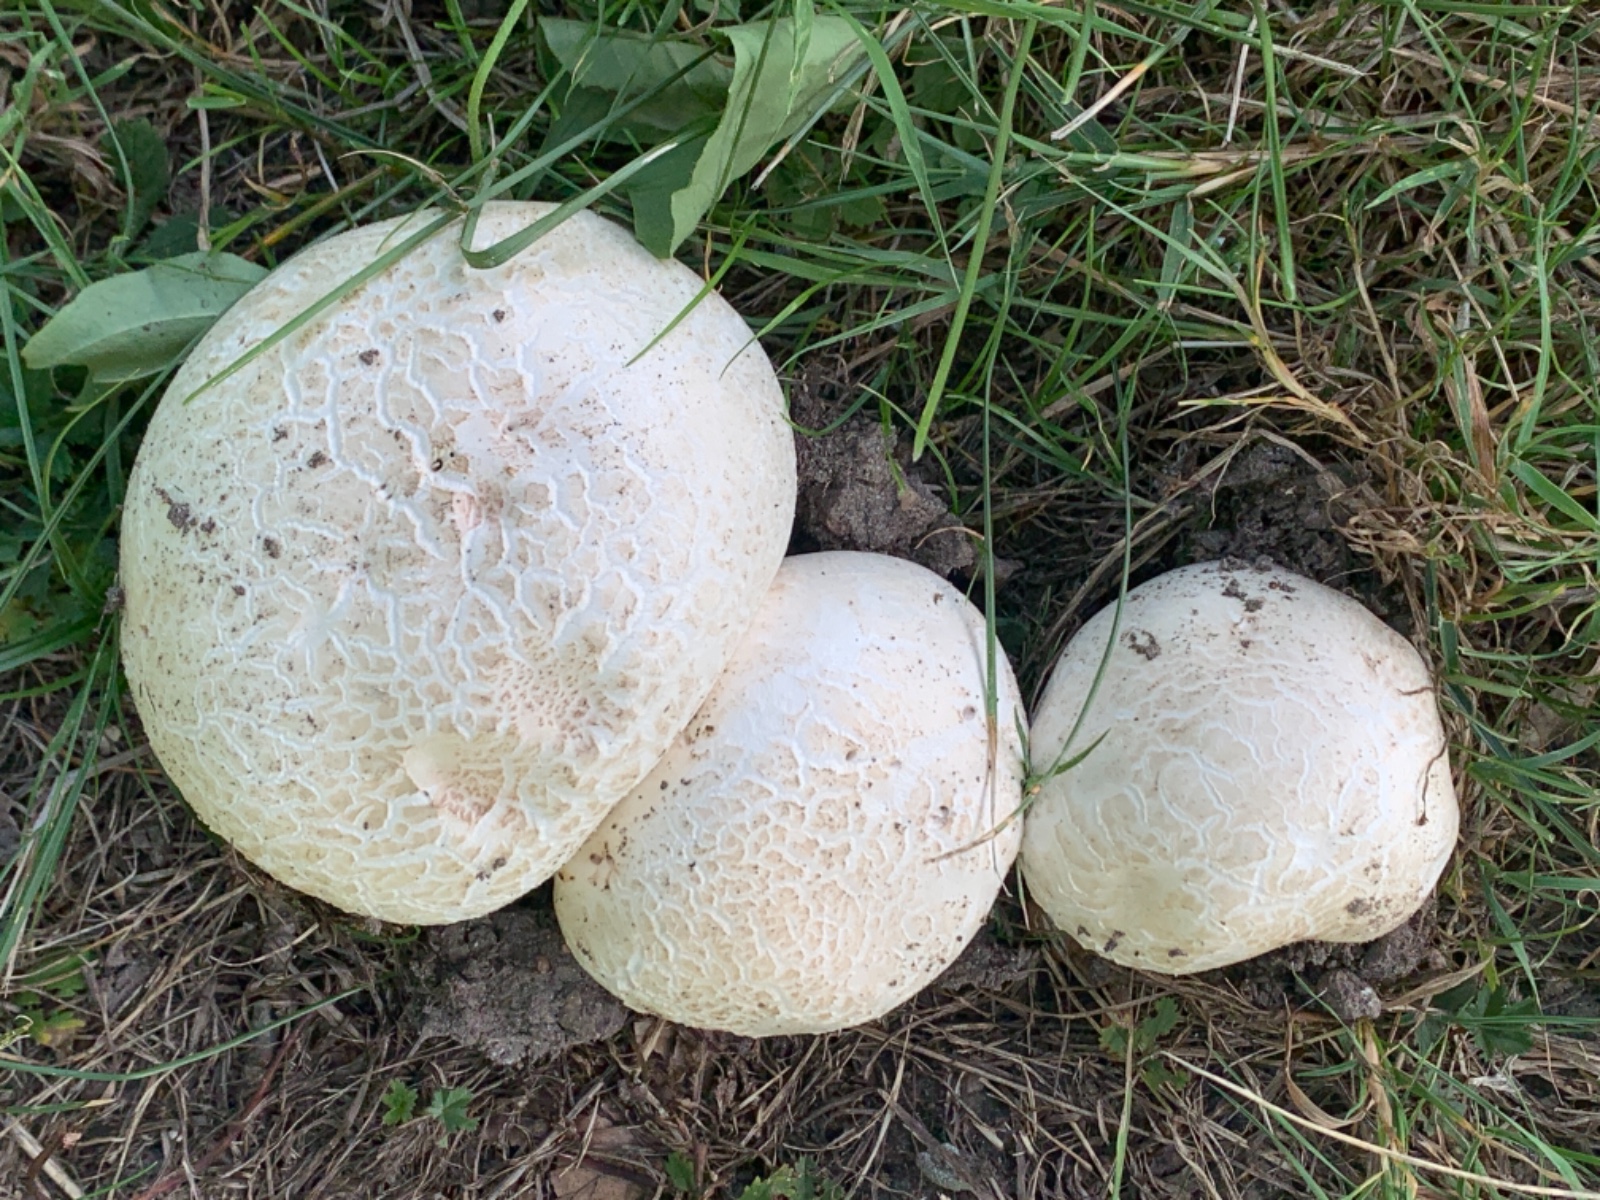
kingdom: Fungi
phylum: Basidiomycota
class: Agaricomycetes
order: Agaricales
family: Agaricaceae
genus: Agaricus
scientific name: Agaricus bernardii
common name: strandengs-champignon
